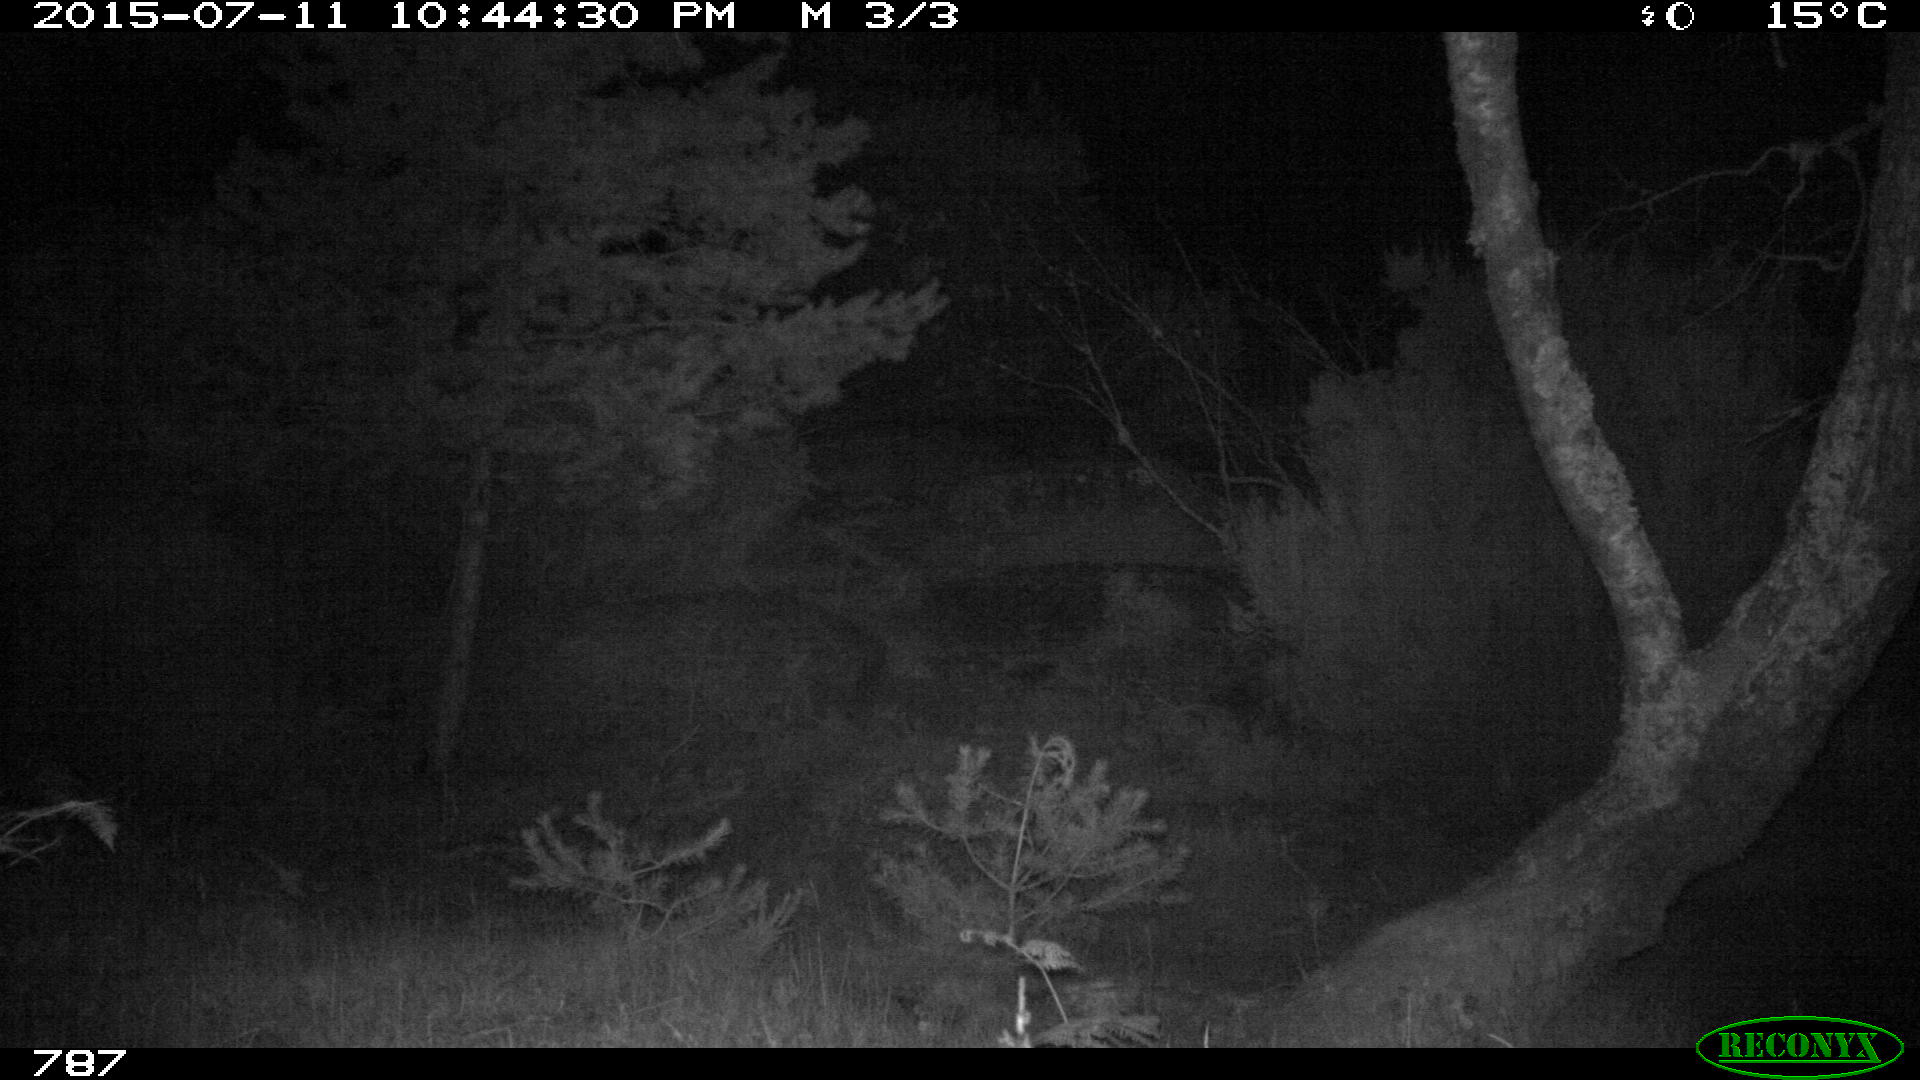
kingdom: Animalia
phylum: Chordata
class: Mammalia
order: Perissodactyla
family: Equidae
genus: Equus
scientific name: Equus caballus
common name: Horse
